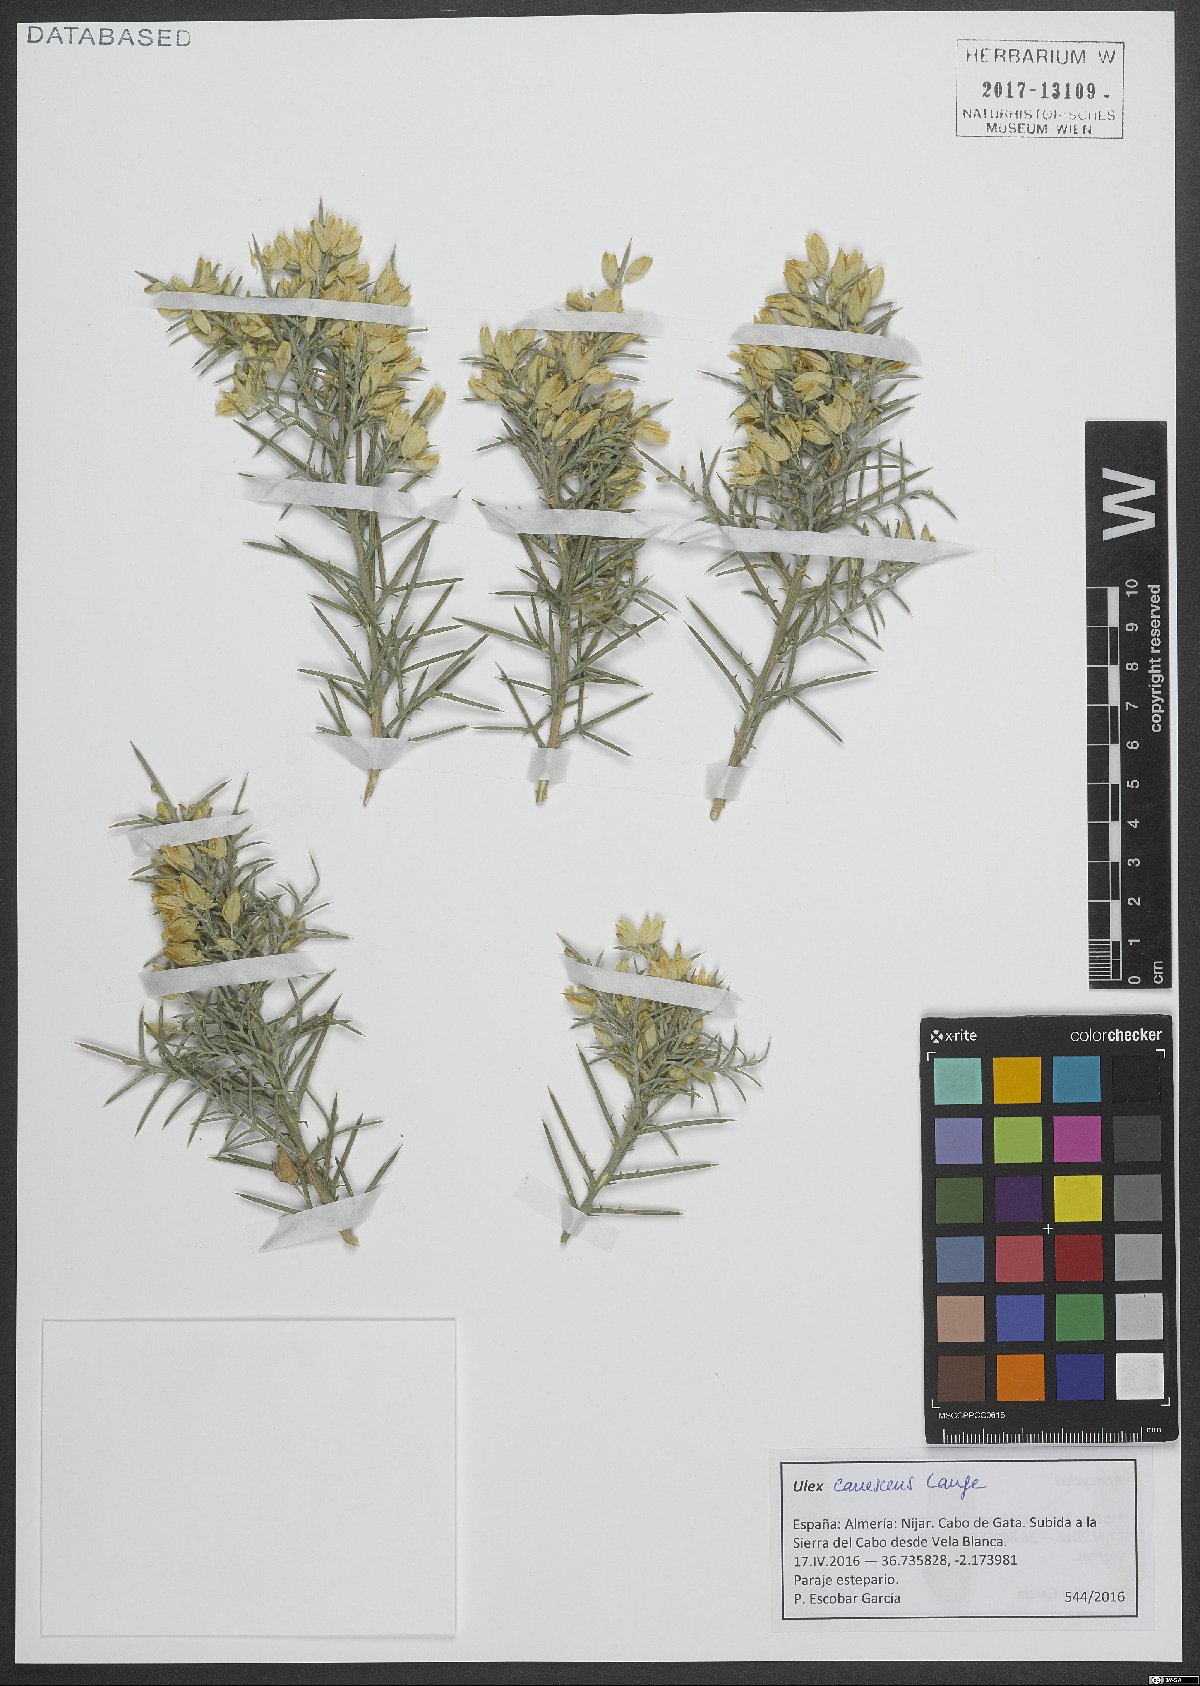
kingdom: Plantae
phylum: Tracheophyta
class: Magnoliopsida
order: Fabales
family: Fabaceae
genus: Ulex
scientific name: Ulex canescens
